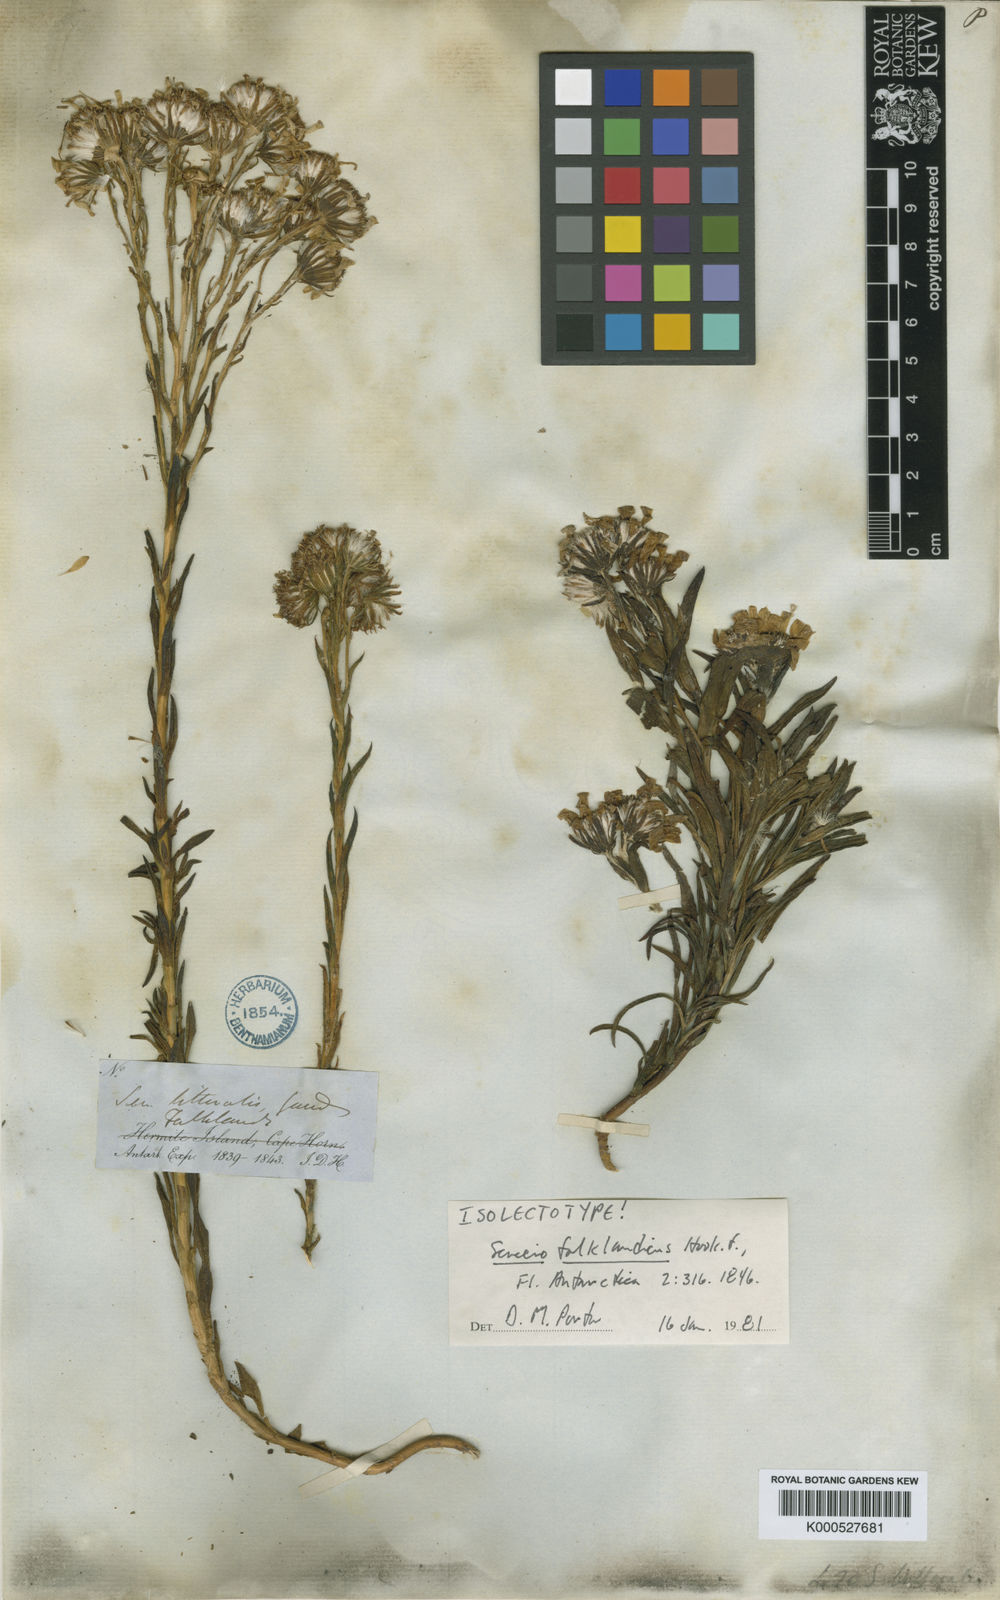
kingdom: Plantae
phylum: Tracheophyta
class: Magnoliopsida
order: Asterales
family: Asteraceae
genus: Senecio
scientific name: Senecio vaginatus
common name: Smooth falkland daisy
